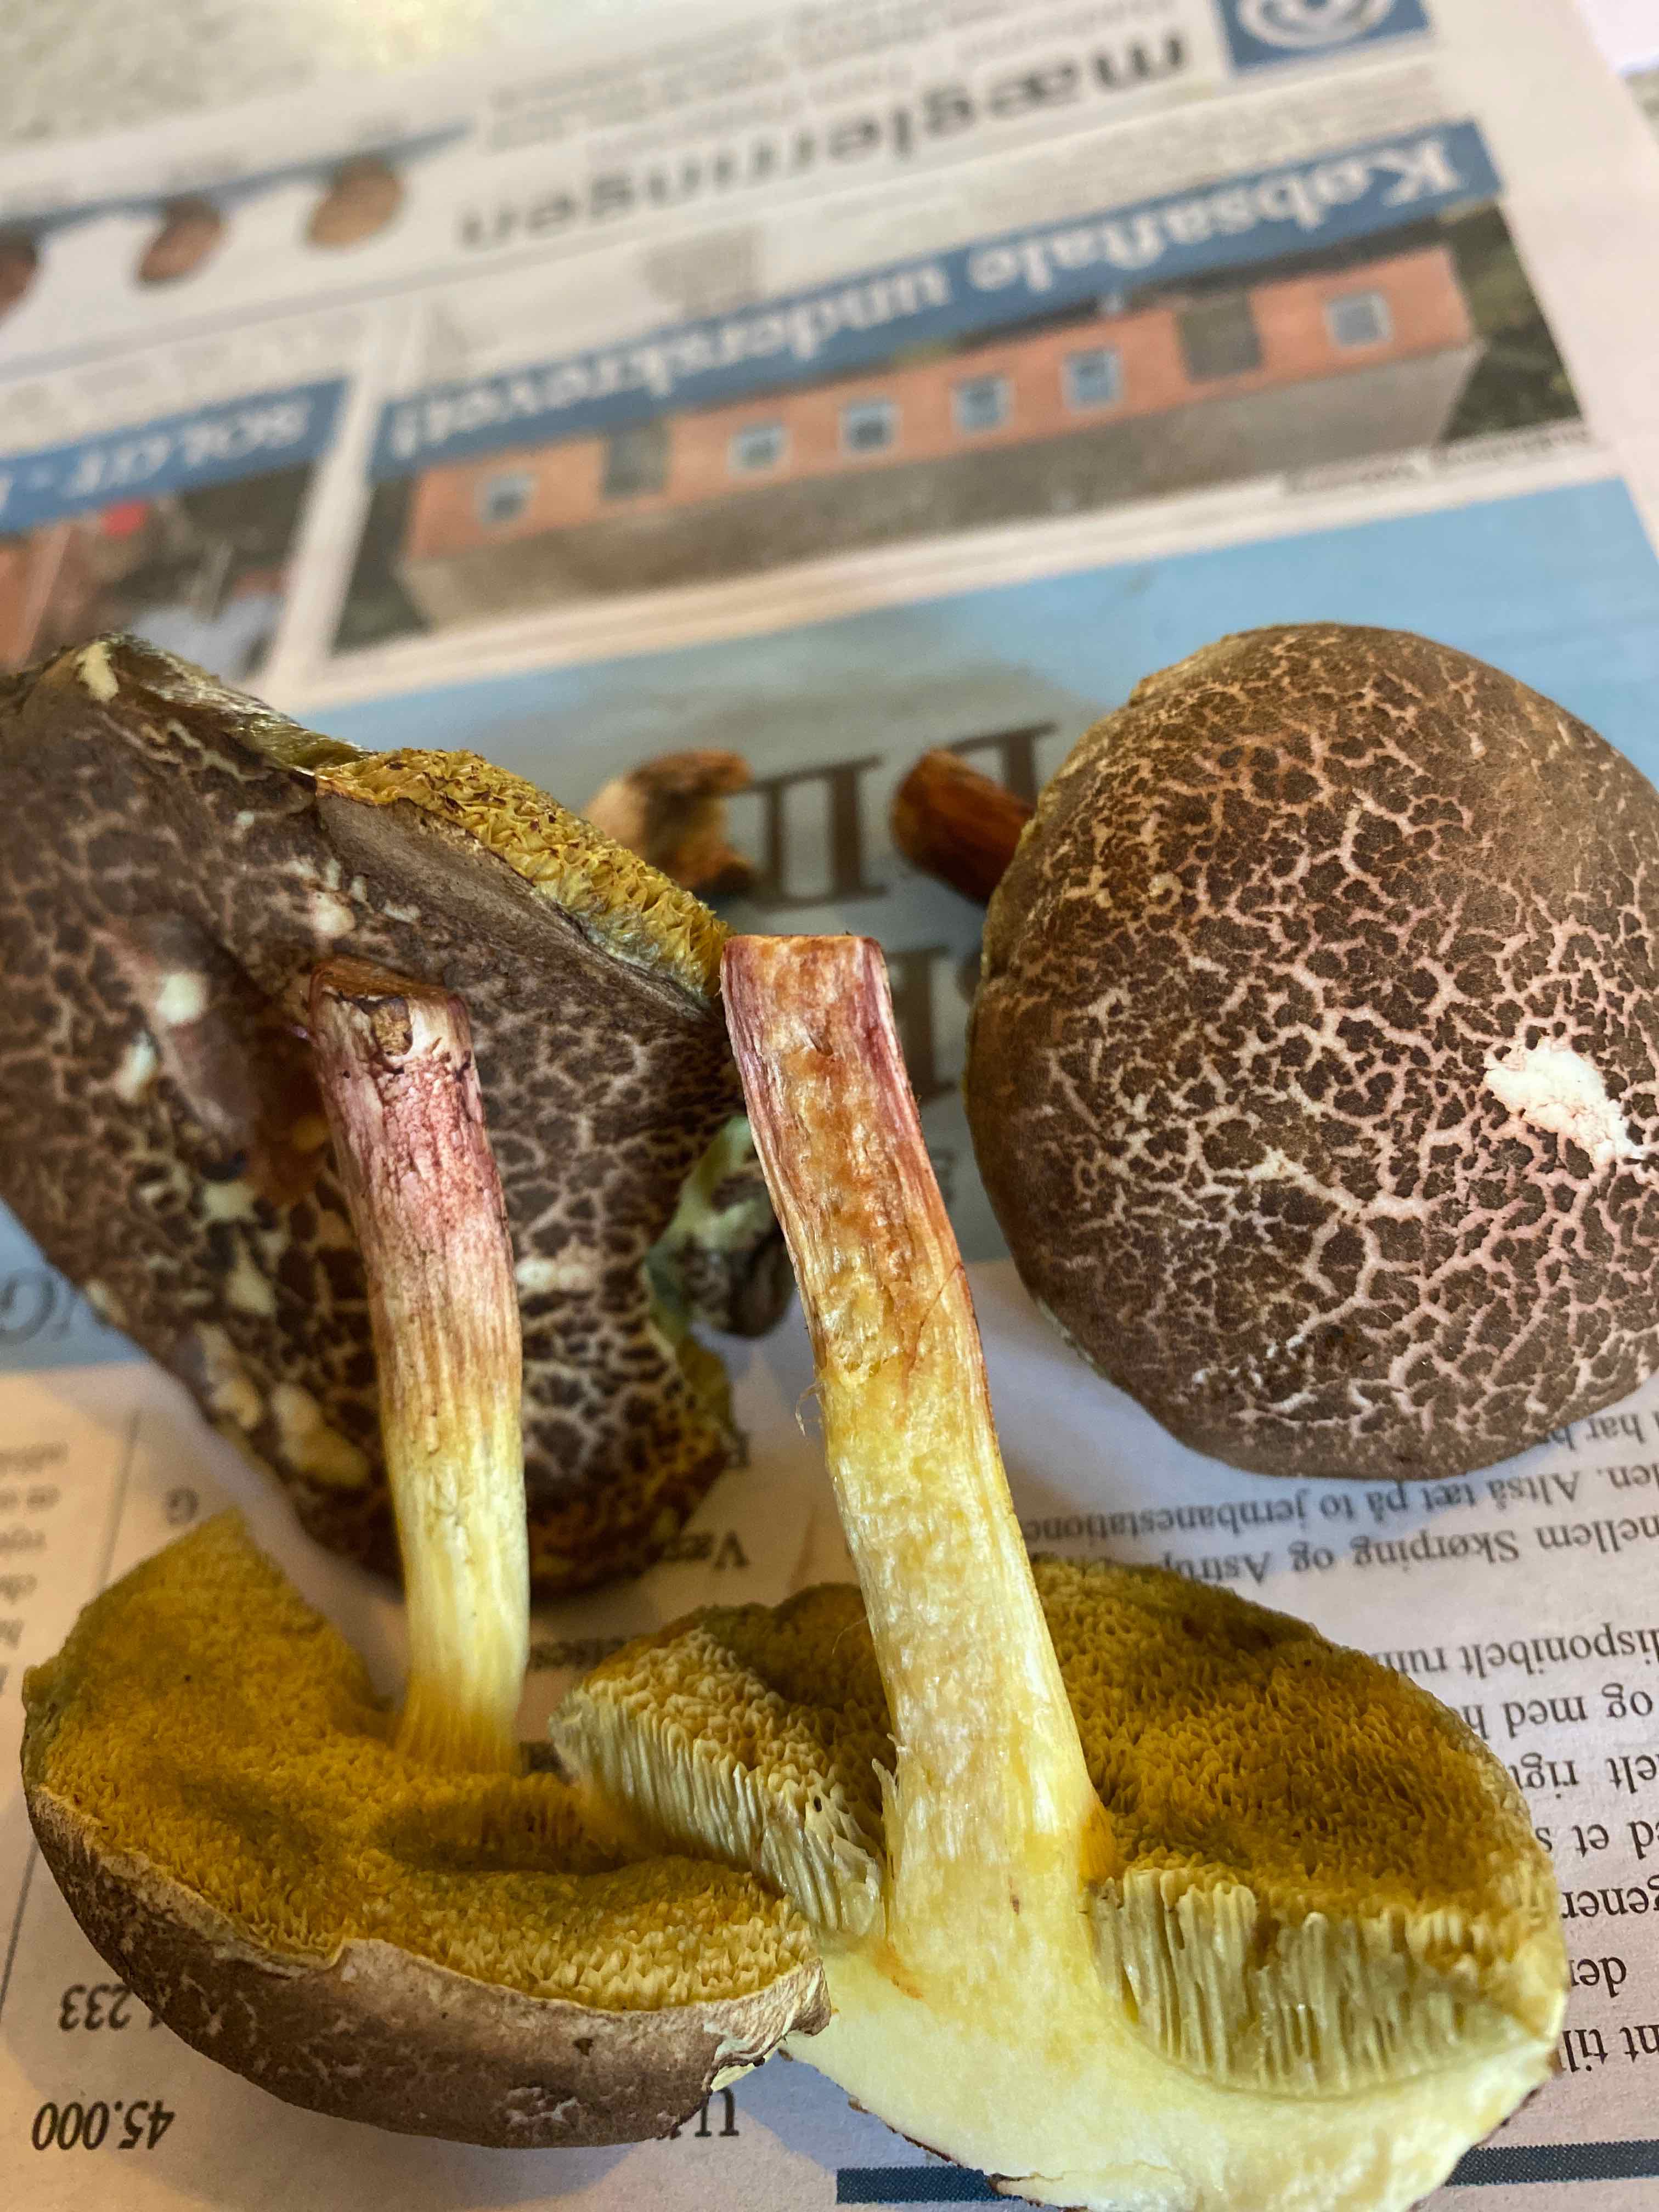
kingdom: Fungi
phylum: Basidiomycota
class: Agaricomycetes
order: Boletales
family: Boletaceae
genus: Xerocomellus
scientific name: Xerocomellus chrysenteron
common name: rødsprukken rørhat
